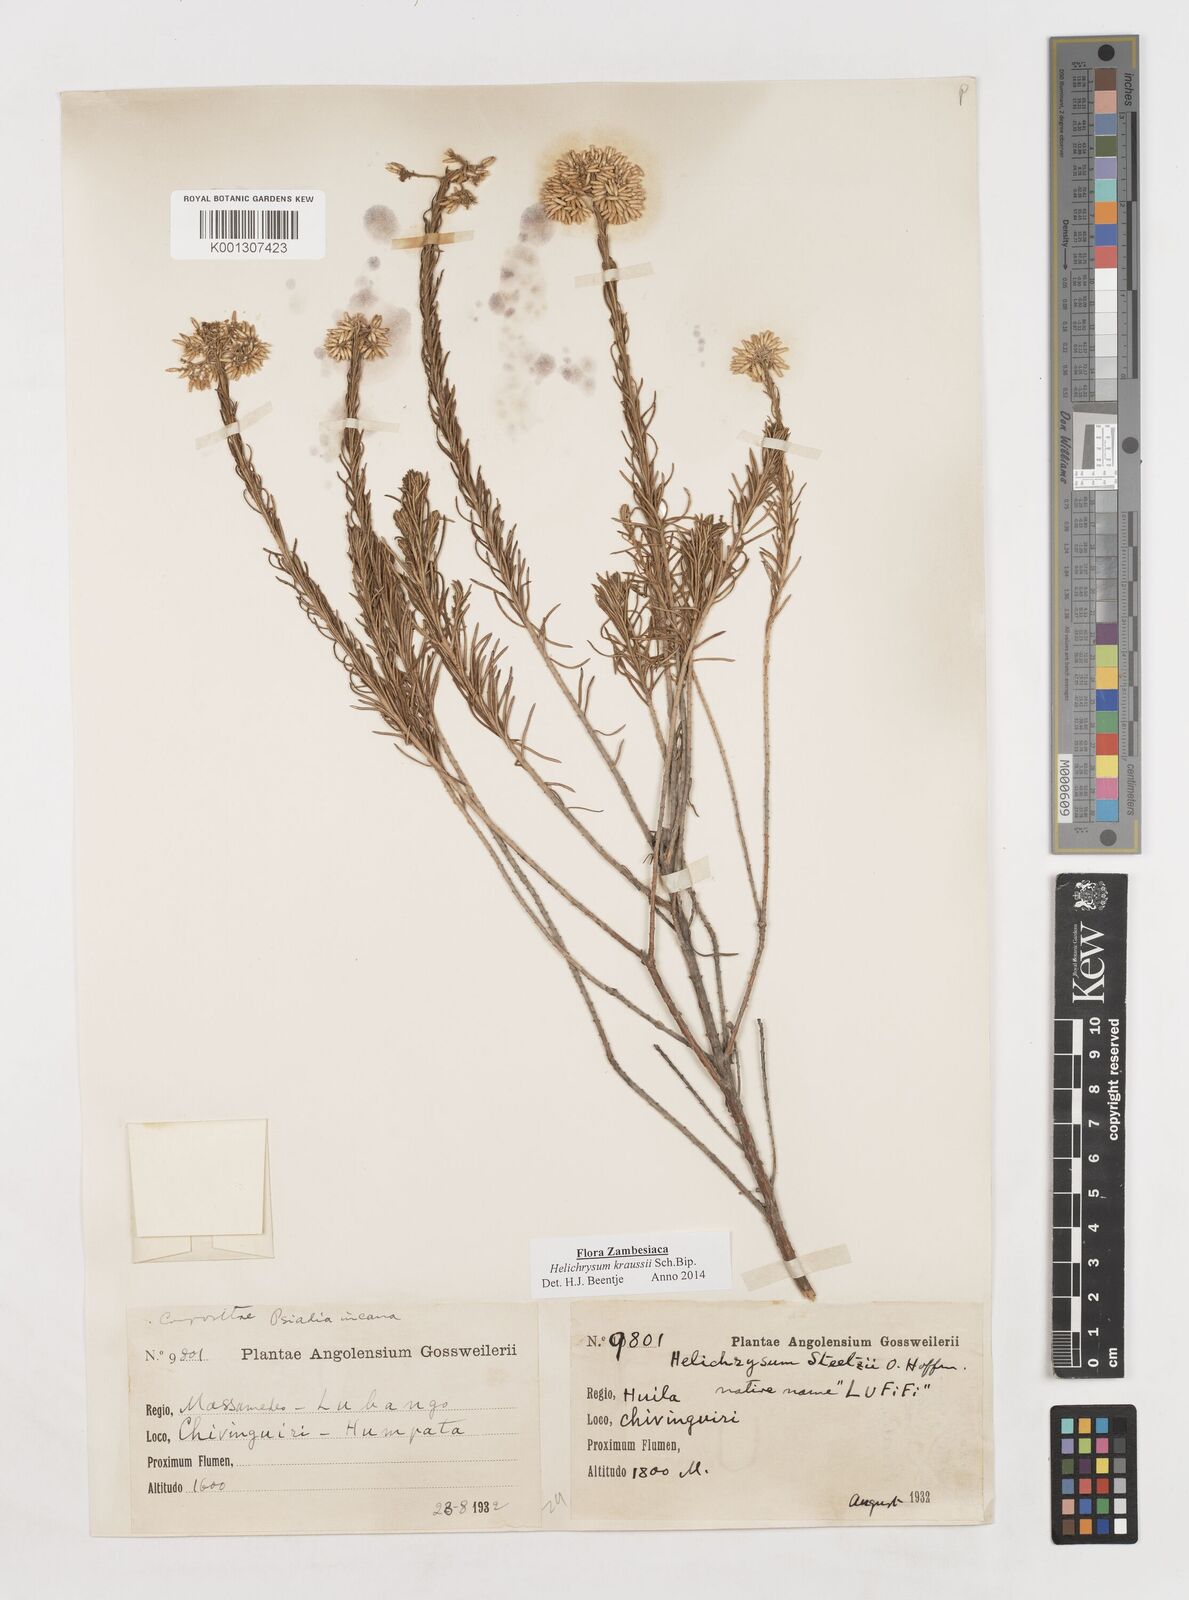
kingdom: Plantae
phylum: Tracheophyta
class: Magnoliopsida
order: Asterales
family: Asteraceae
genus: Helichrysum
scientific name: Helichrysum kraussii
